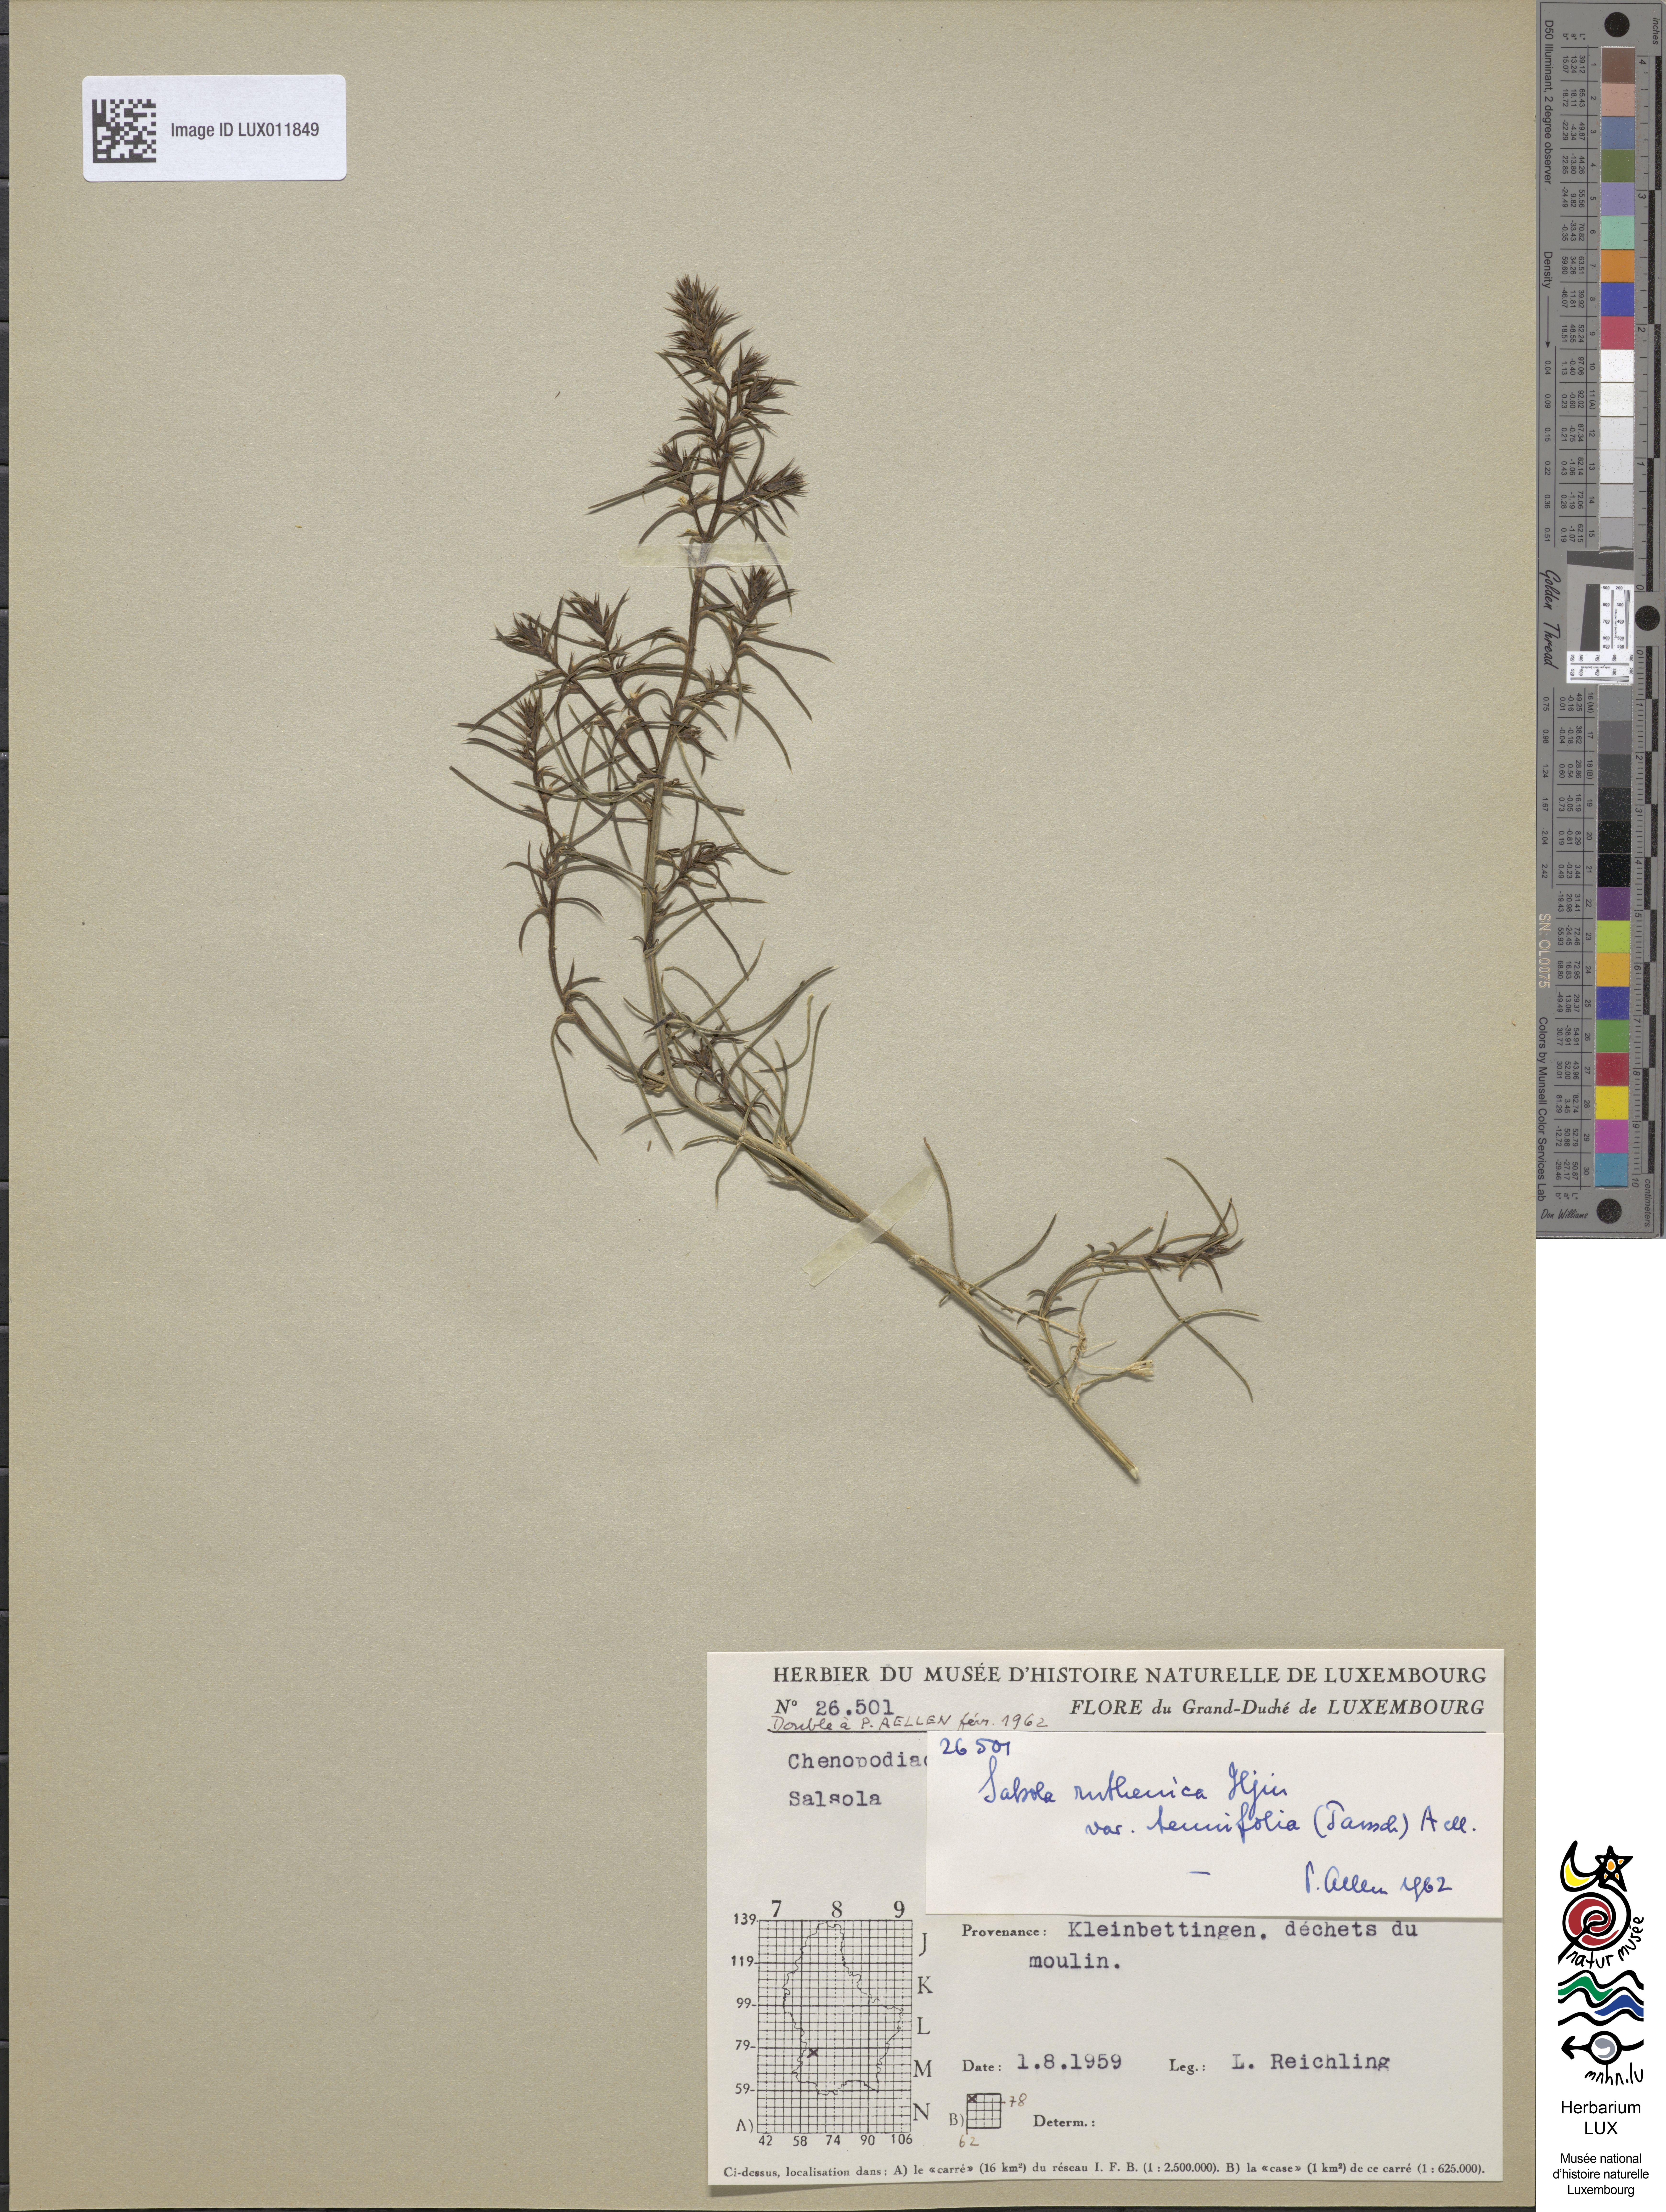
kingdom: Plantae
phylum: Tracheophyta
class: Magnoliopsida
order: Caryophyllales
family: Amaranthaceae
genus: Salsola
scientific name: Salsola tragus
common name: Prickly russian thistle
